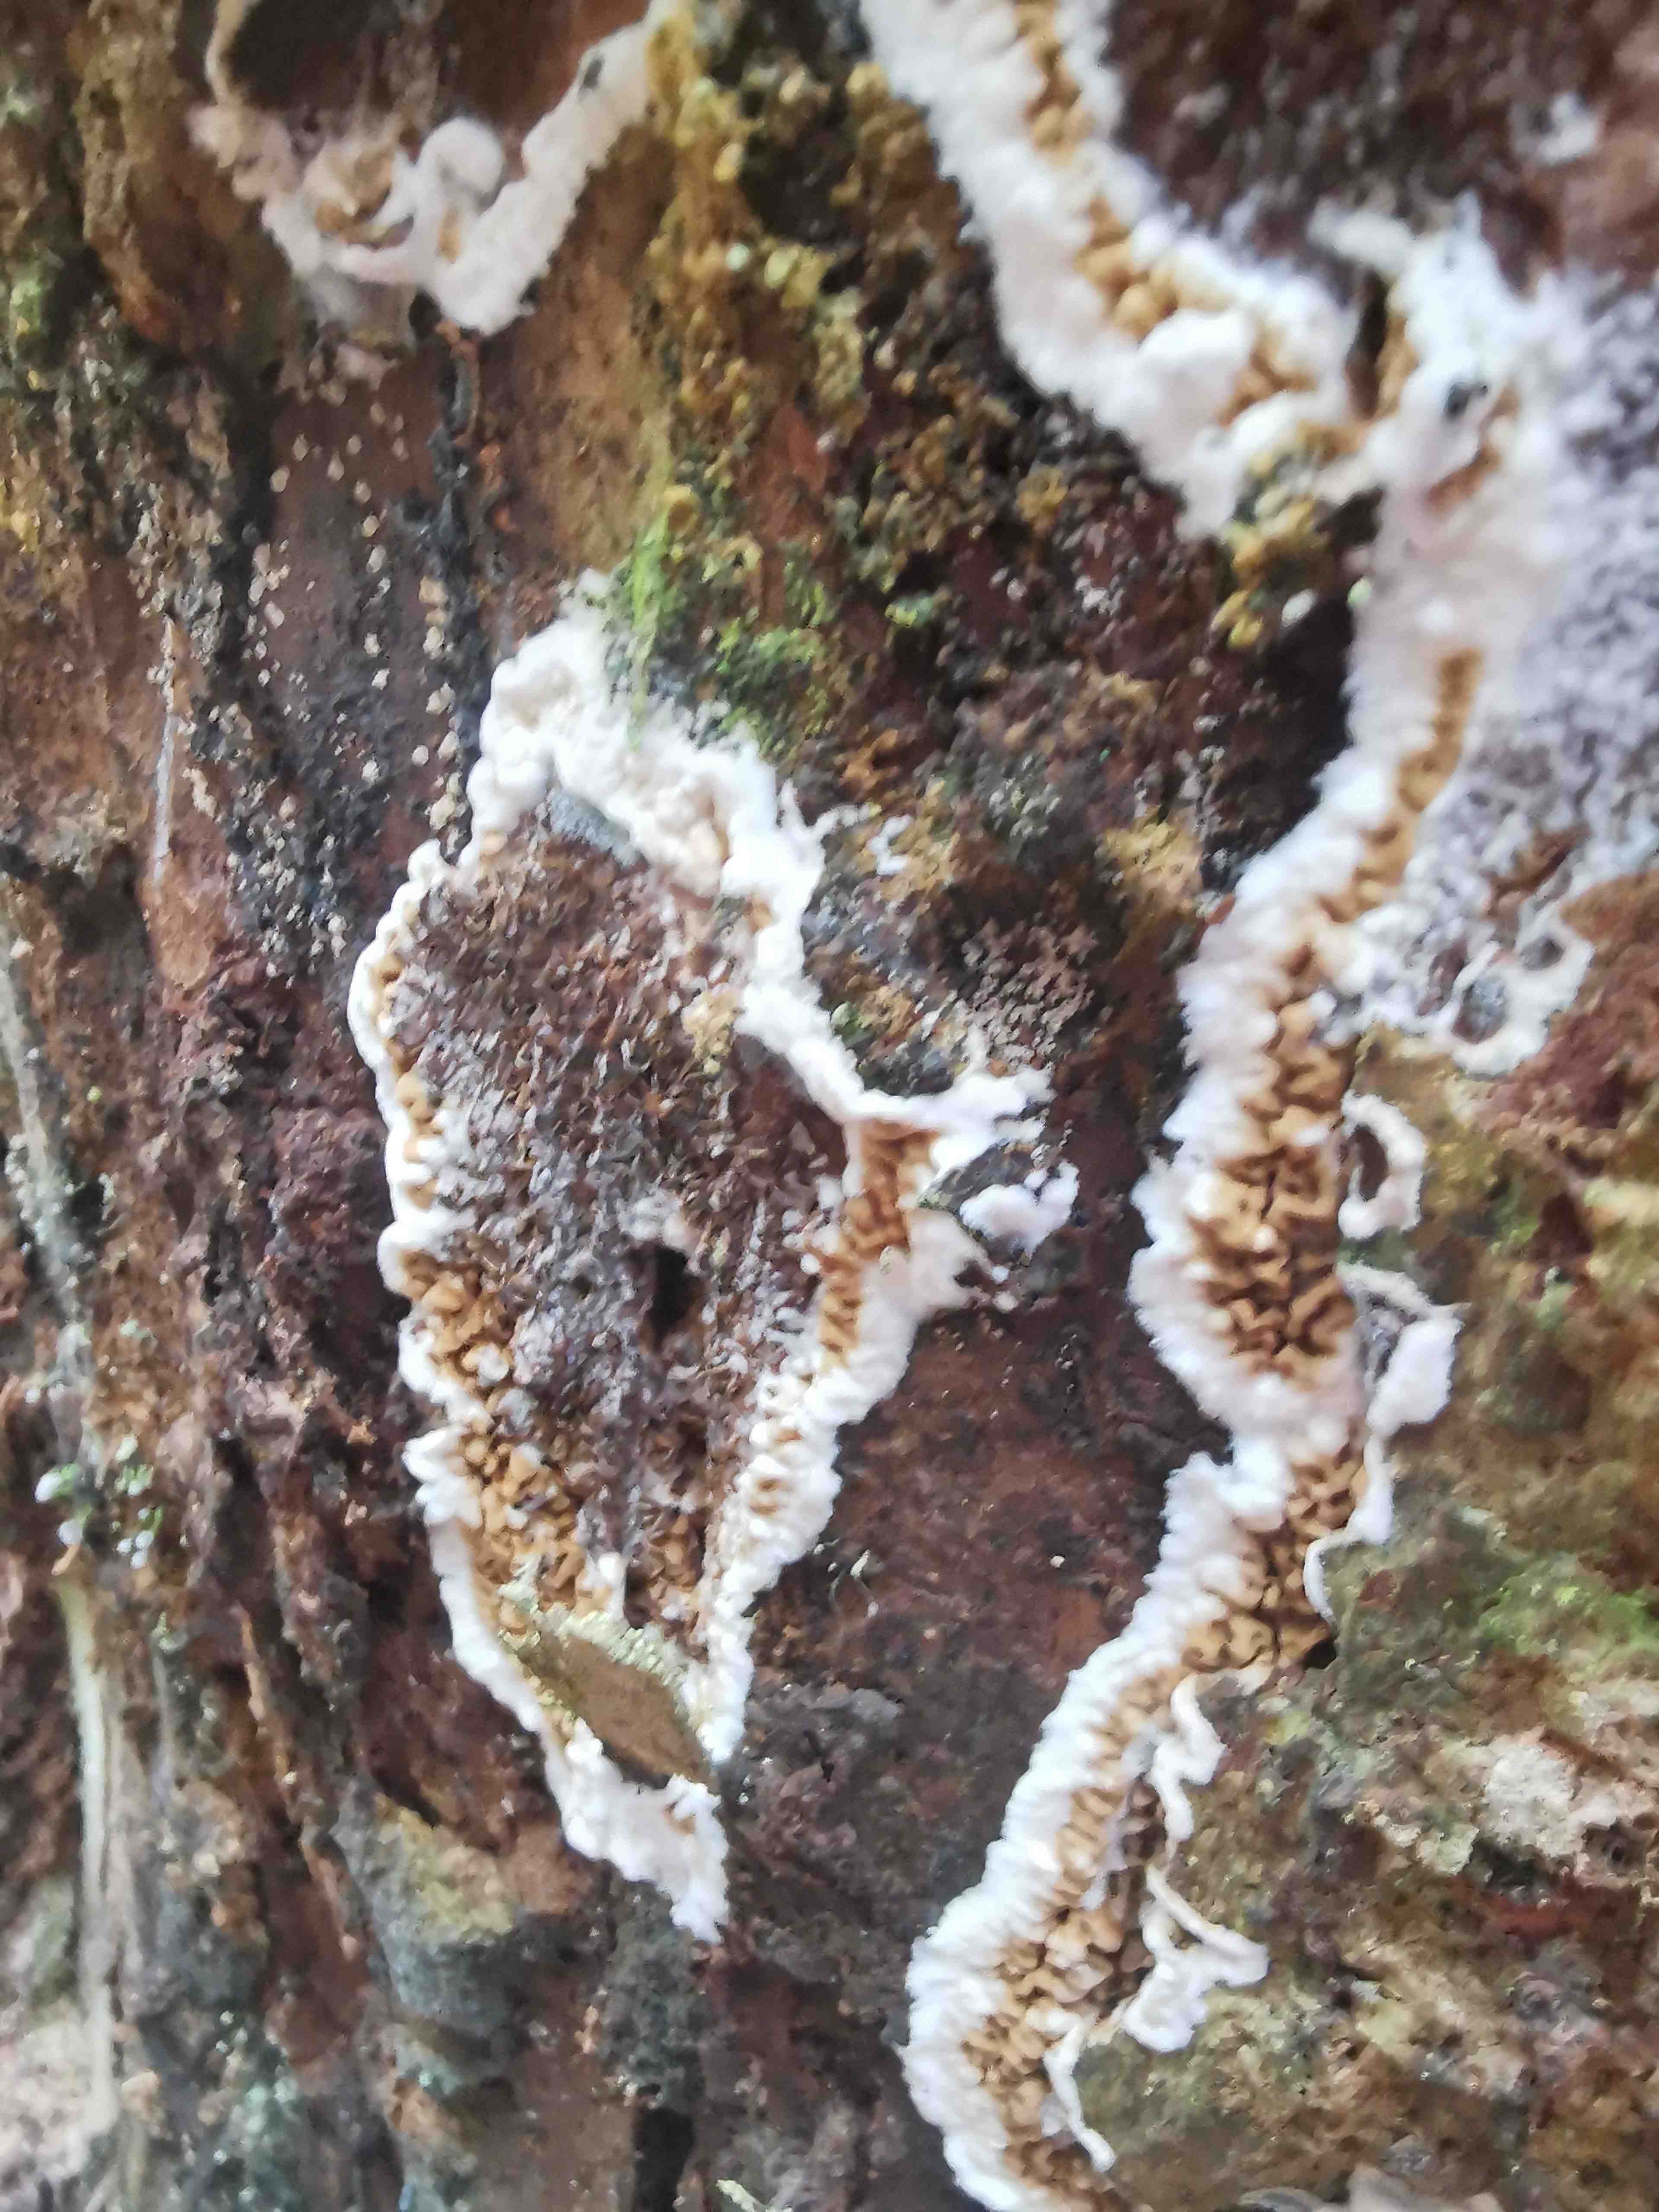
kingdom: Fungi
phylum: Basidiomycota
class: Agaricomycetes
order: Boletales
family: Serpulaceae
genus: Serpula
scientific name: Serpula himantioides
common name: tyndkødet hussvamp
